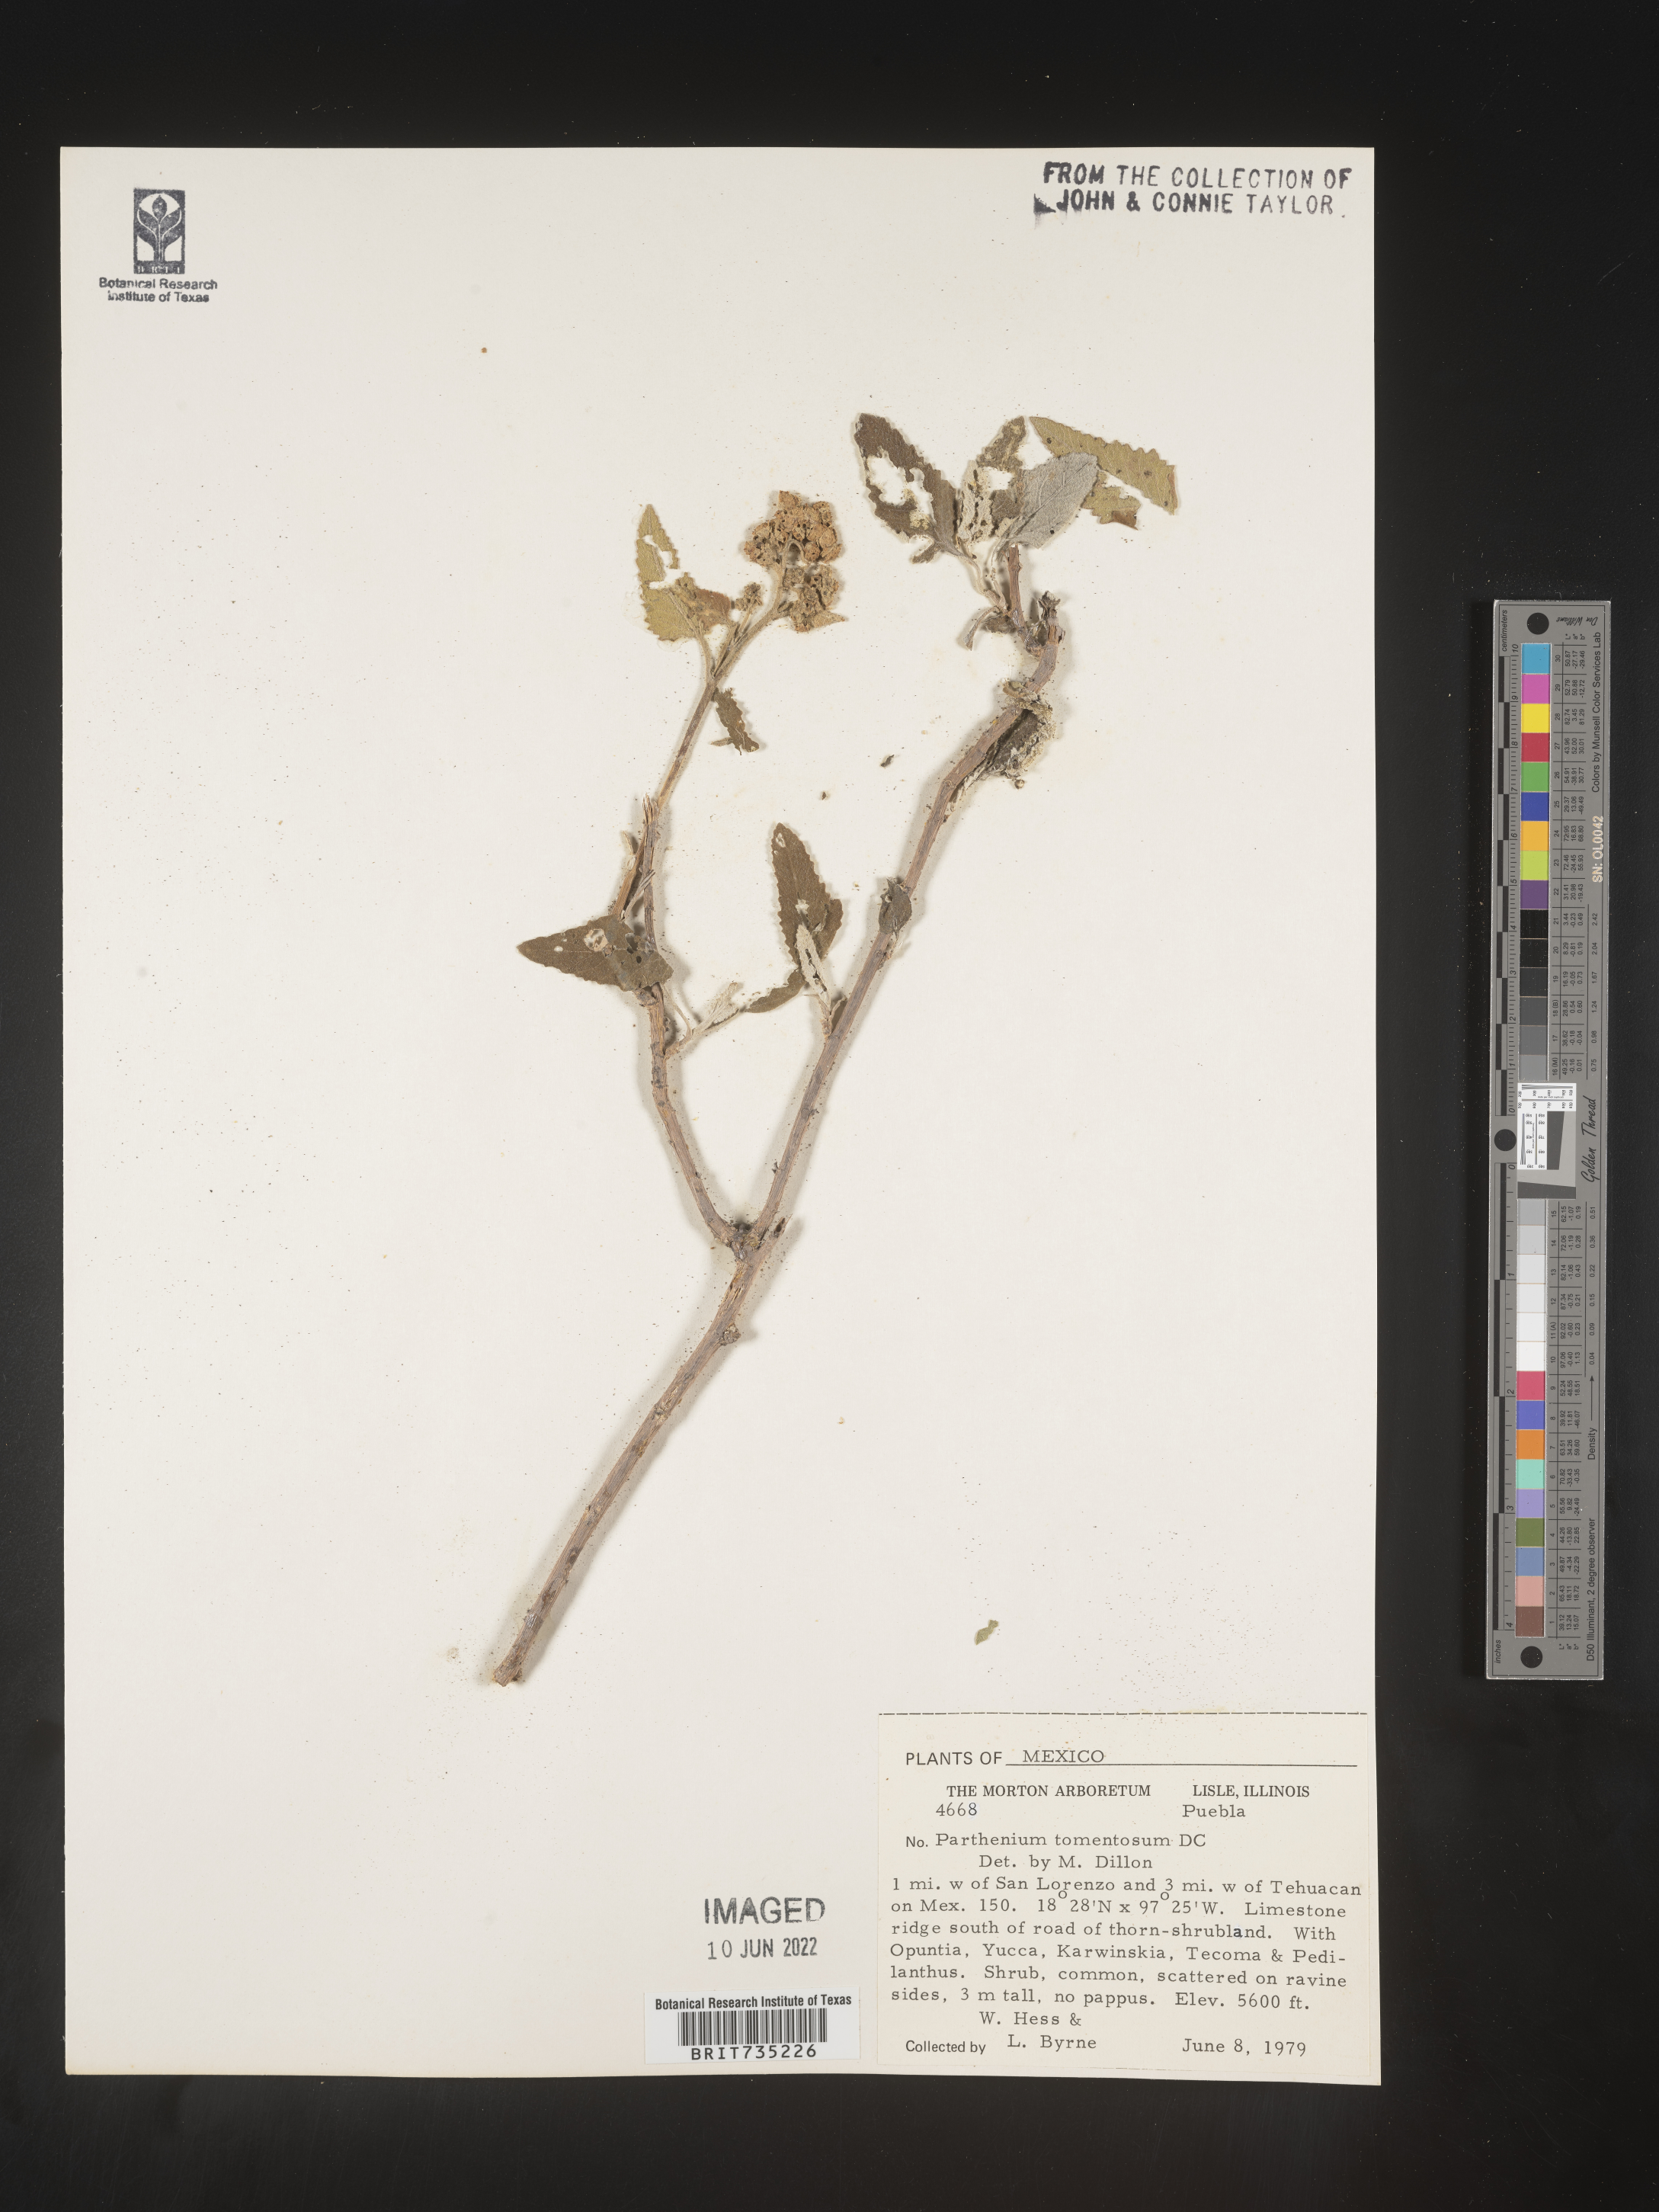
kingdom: Plantae
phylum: Tracheophyta
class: Magnoliopsida
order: Asterales
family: Asteraceae
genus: Parthenium
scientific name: Parthenium
